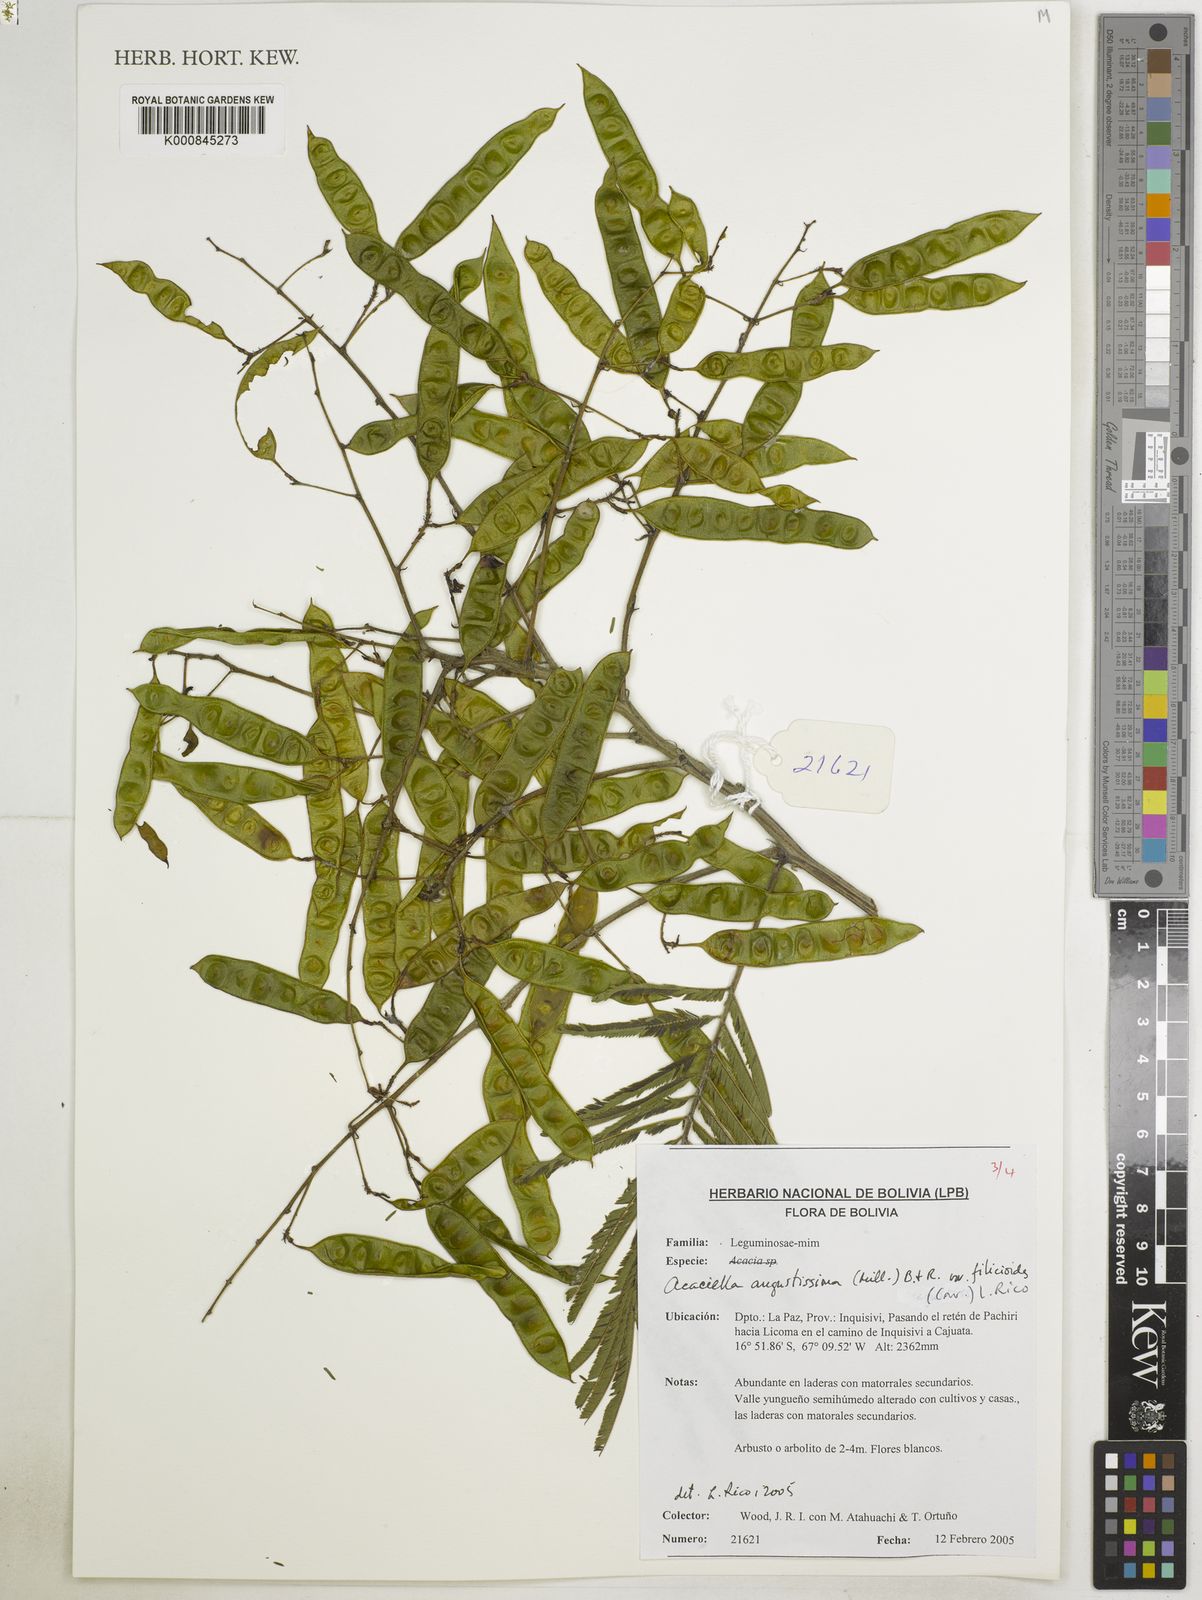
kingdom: Plantae
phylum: Tracheophyta
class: Magnoliopsida
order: Fabales
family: Fabaceae
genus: Acaciella
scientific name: Acaciella angustissima
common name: Prairie acacia
